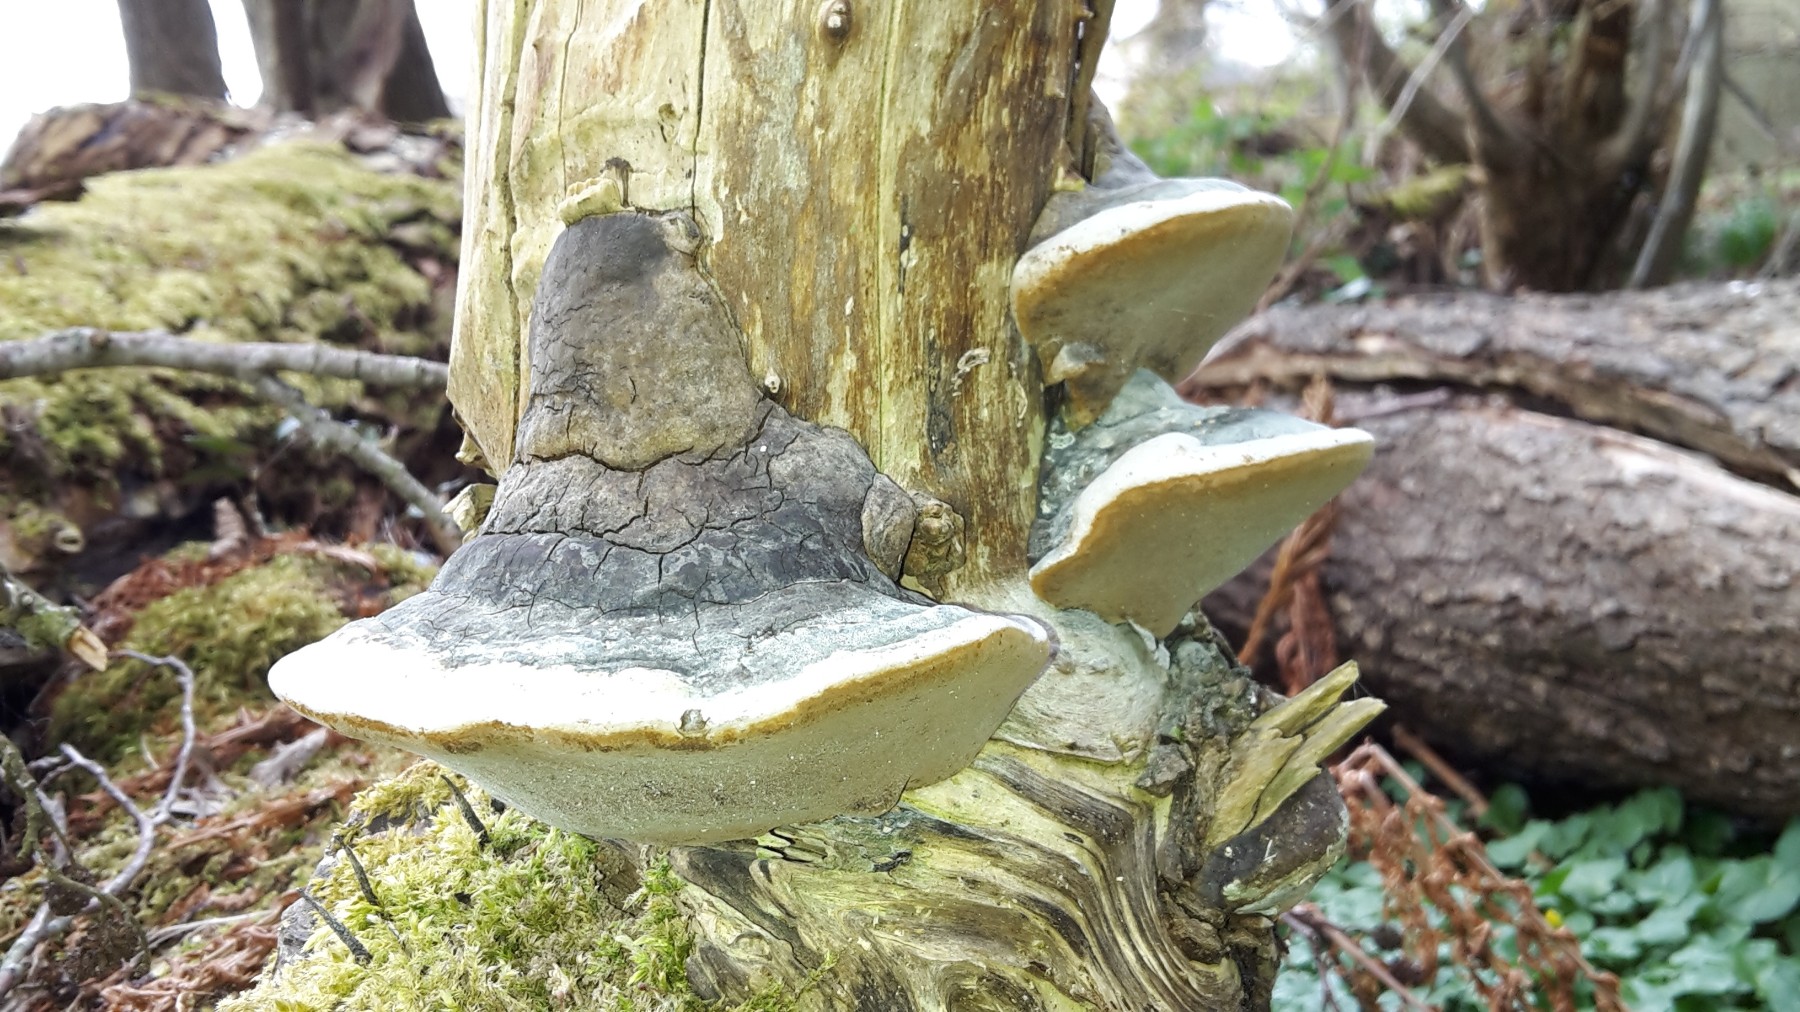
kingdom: Fungi
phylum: Basidiomycota
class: Agaricomycetes
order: Hymenochaetales
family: Hymenochaetaceae
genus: Phellinus
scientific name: Phellinus igniarius
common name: almindelig ildporesvamp
